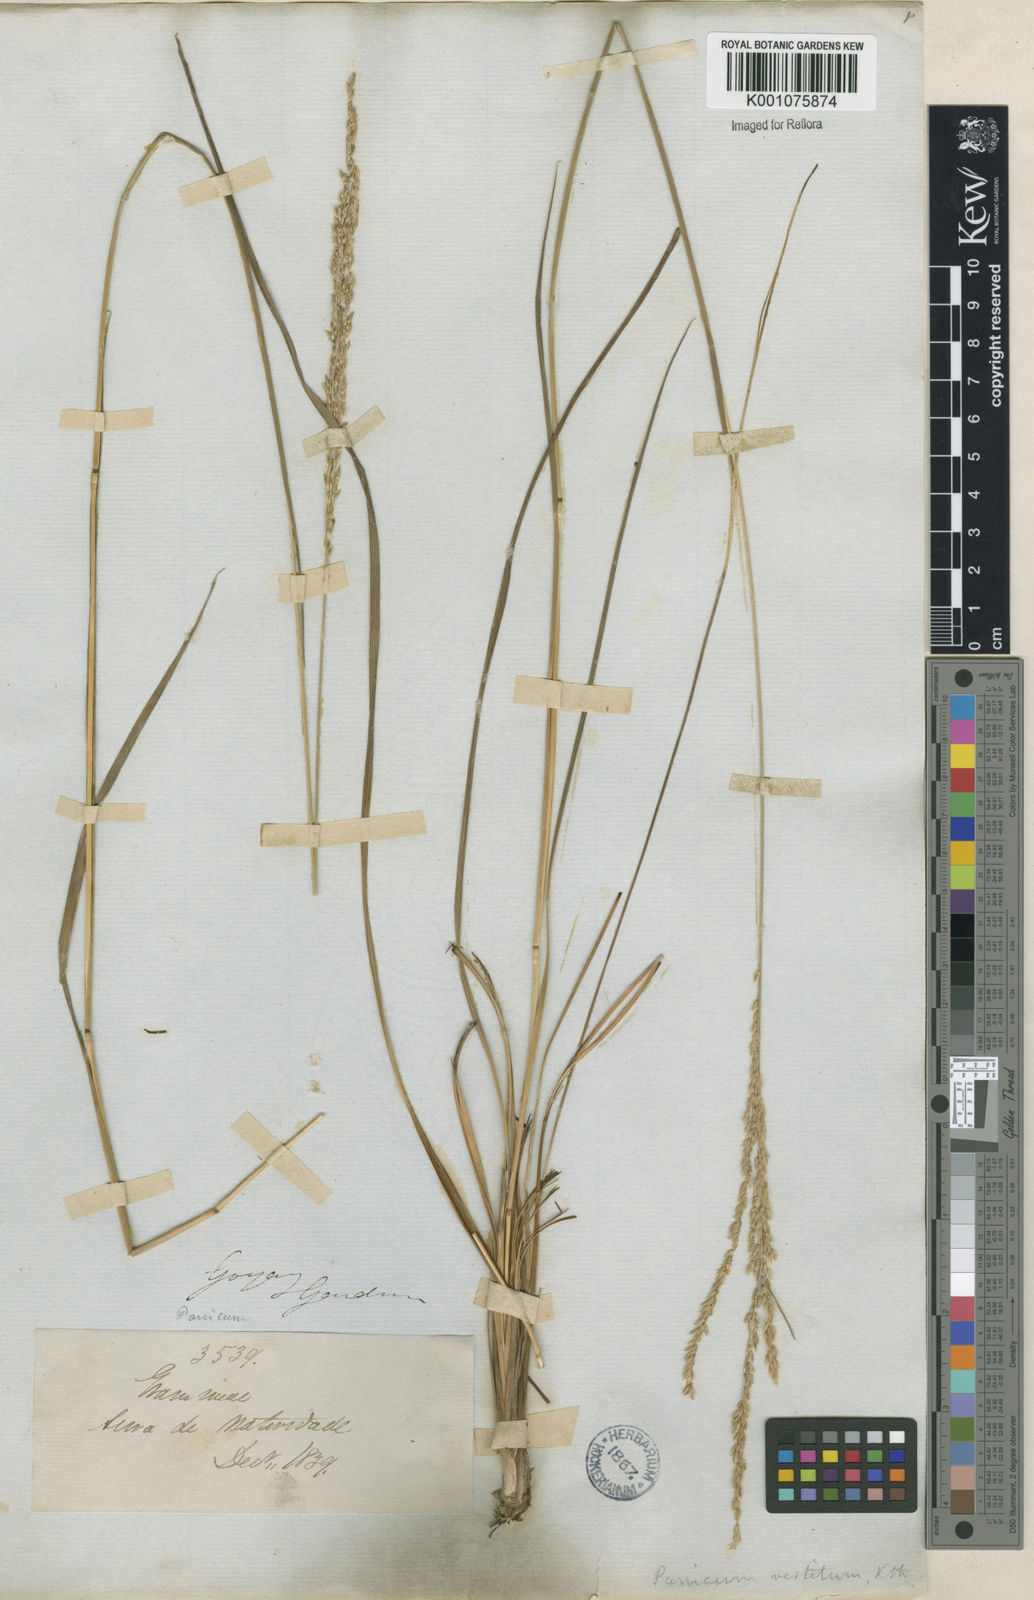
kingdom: Plantae
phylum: Tracheophyta
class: Liliopsida
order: Poales
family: Poaceae
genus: Digitaria
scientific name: Digitaria neesiana
